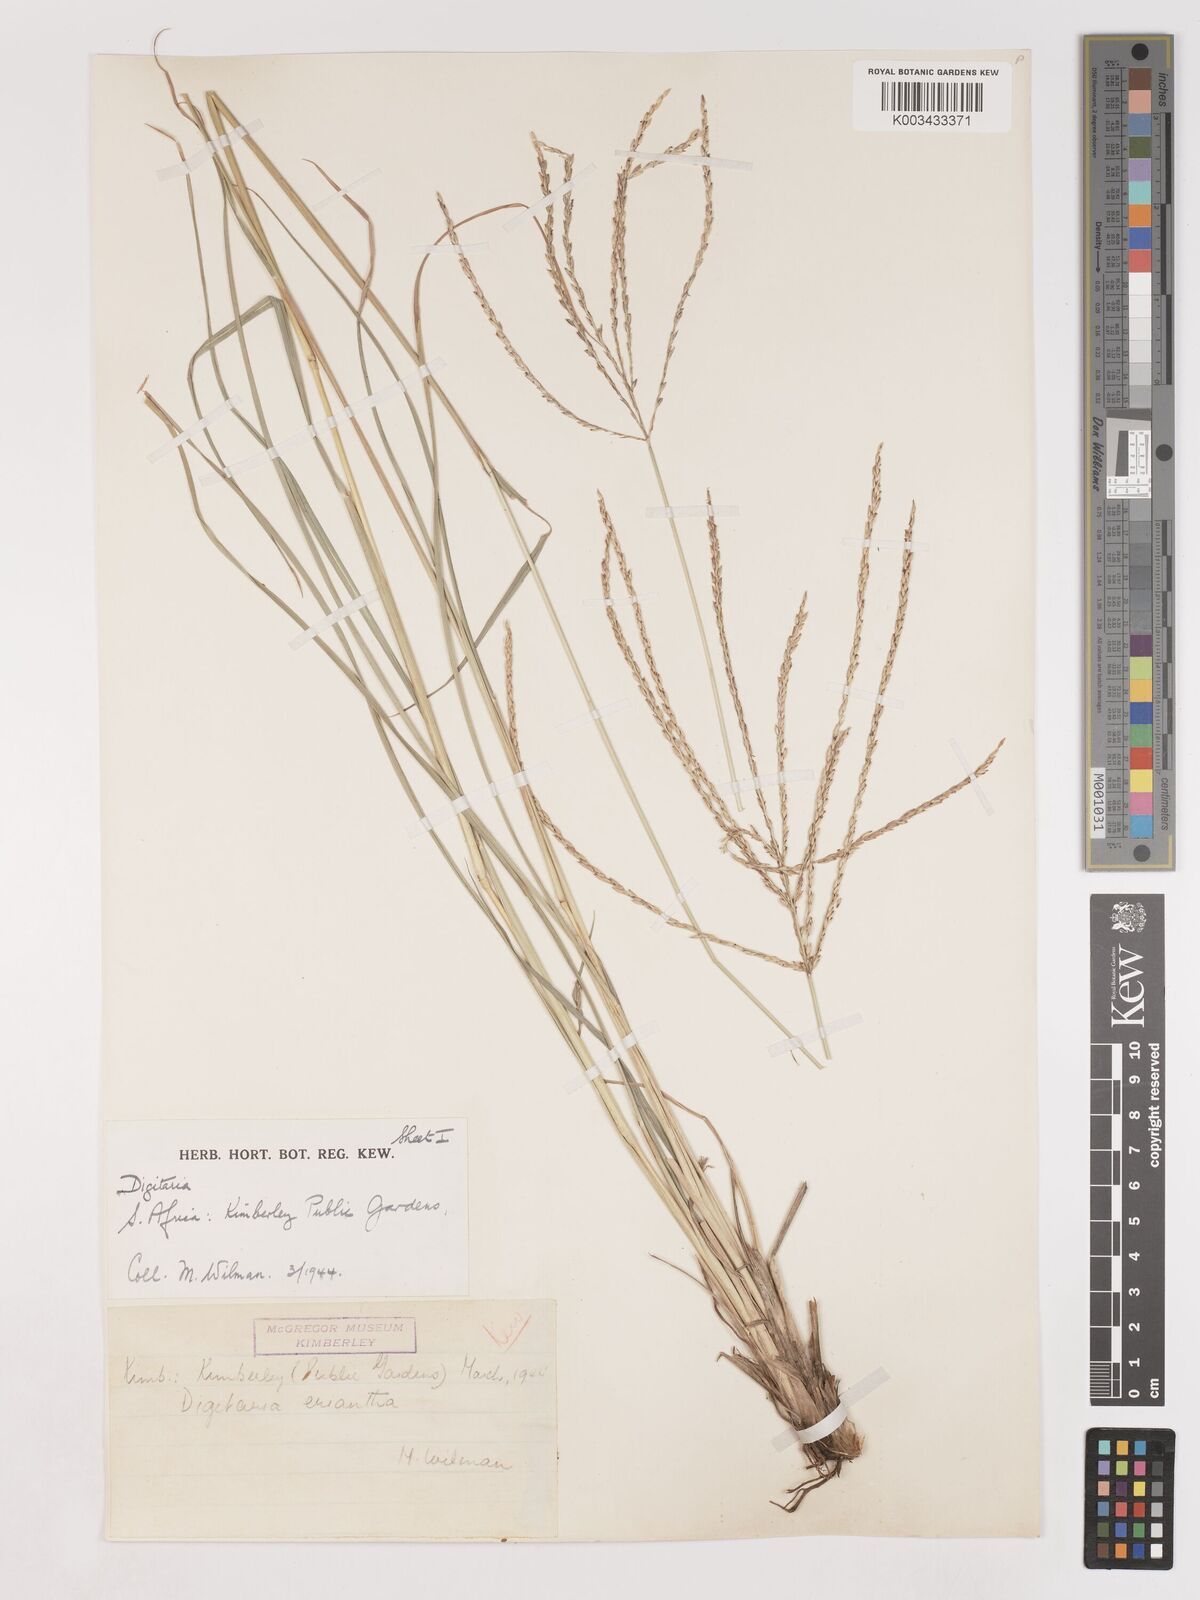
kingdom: Plantae
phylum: Tracheophyta
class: Liliopsida
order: Poales
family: Poaceae
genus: Digitaria
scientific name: Digitaria eriantha
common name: Digitgrass
